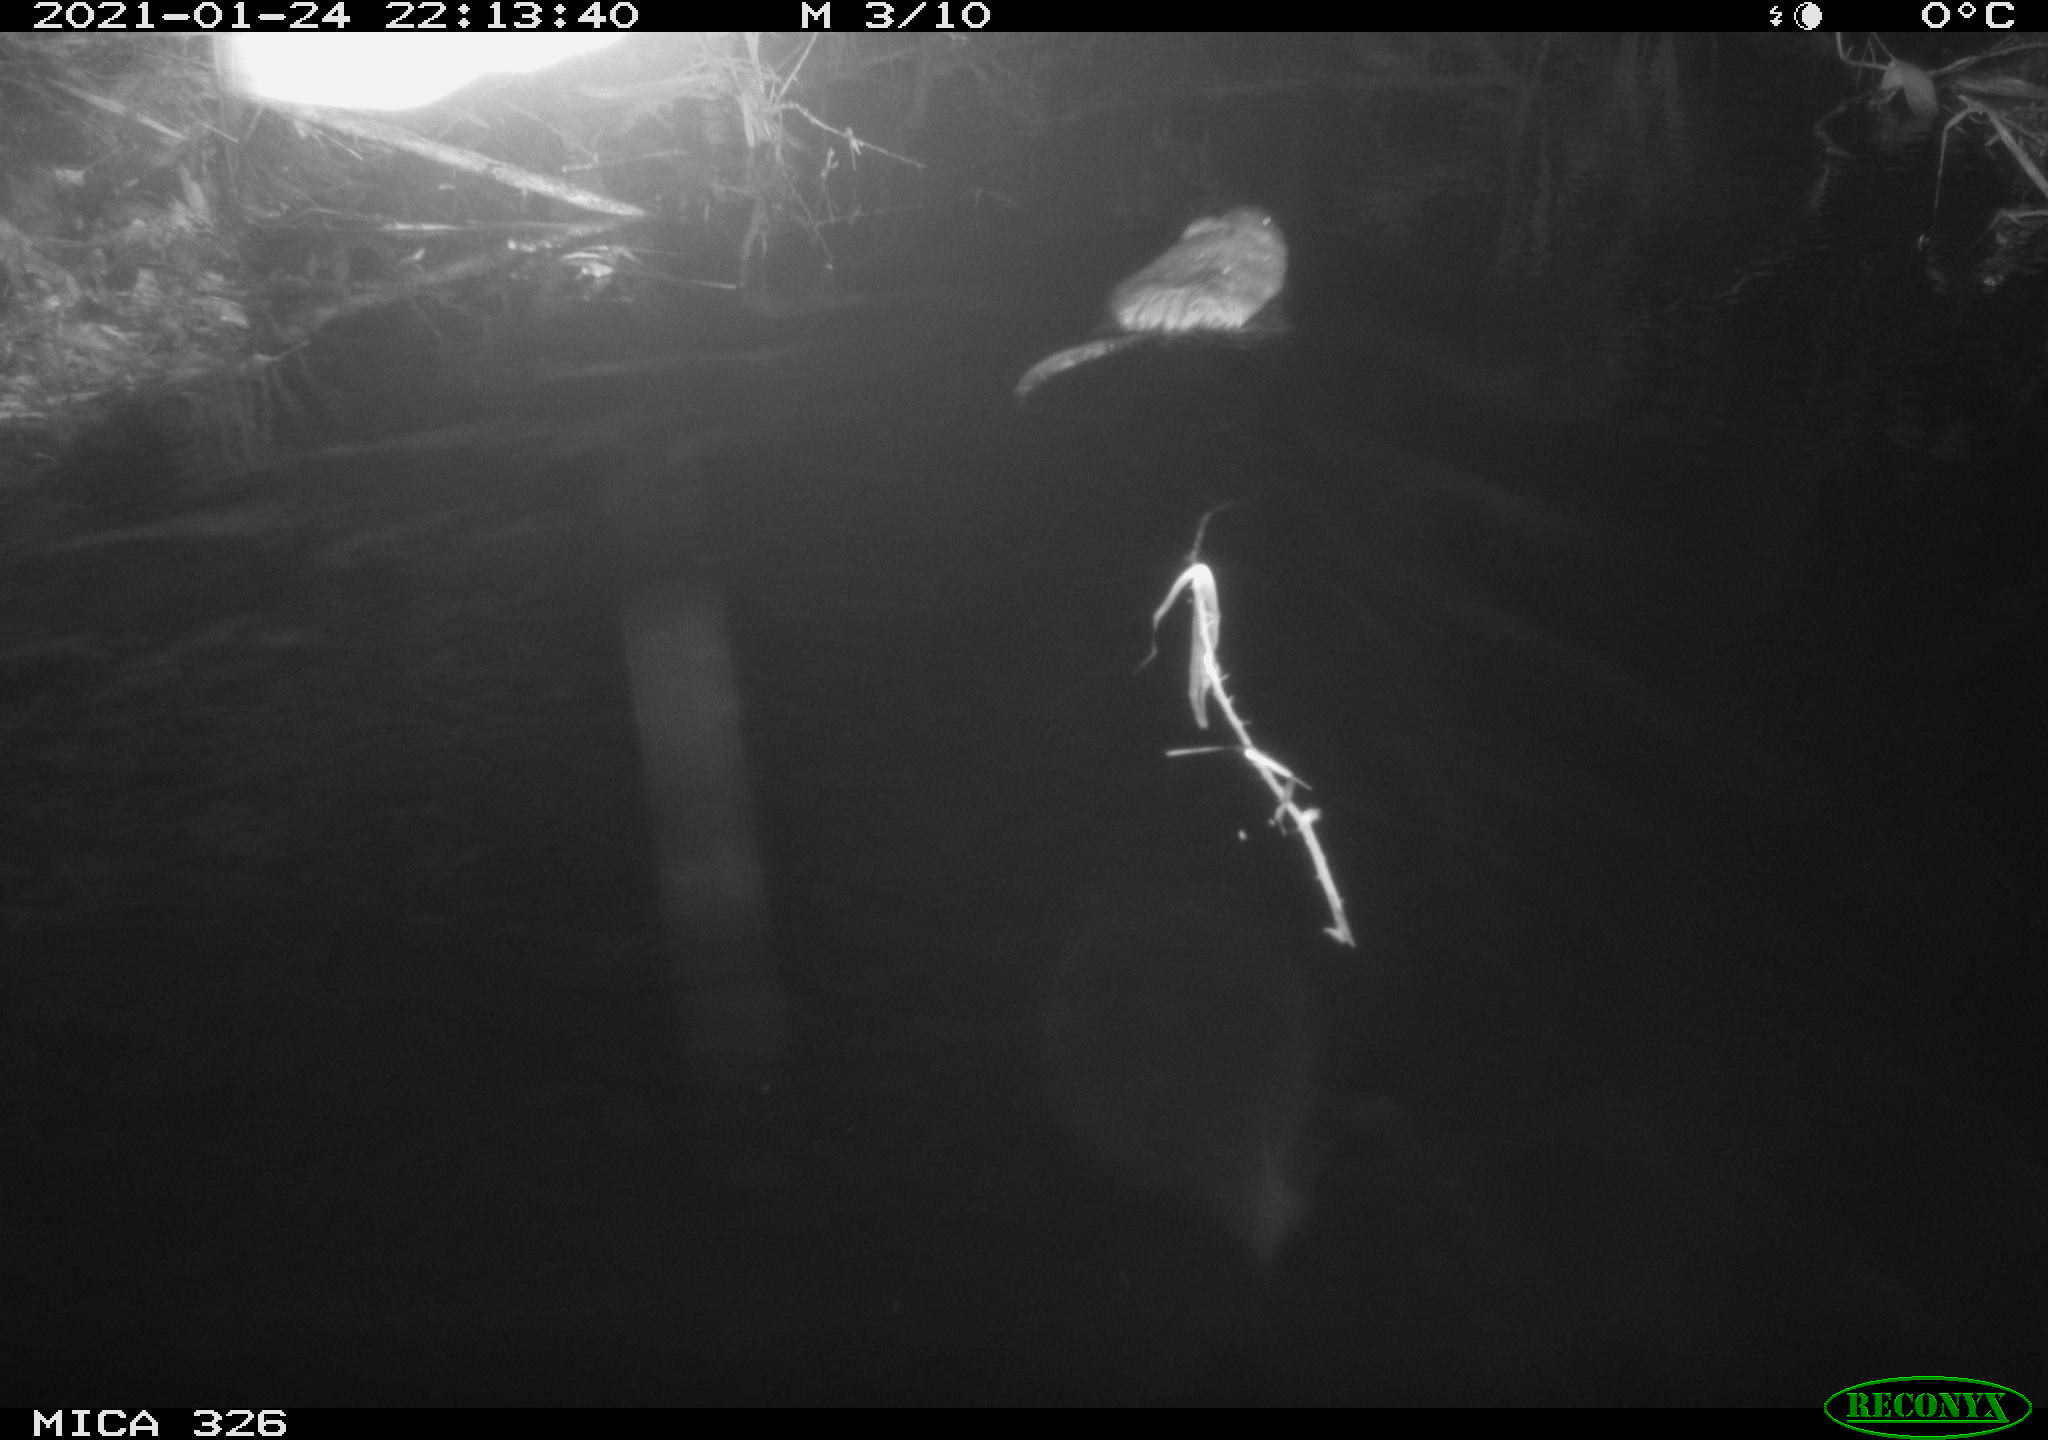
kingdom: Animalia
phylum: Chordata
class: Mammalia
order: Rodentia
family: Cricetidae
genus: Ondatra
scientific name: Ondatra zibethicus
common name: Muskrat
